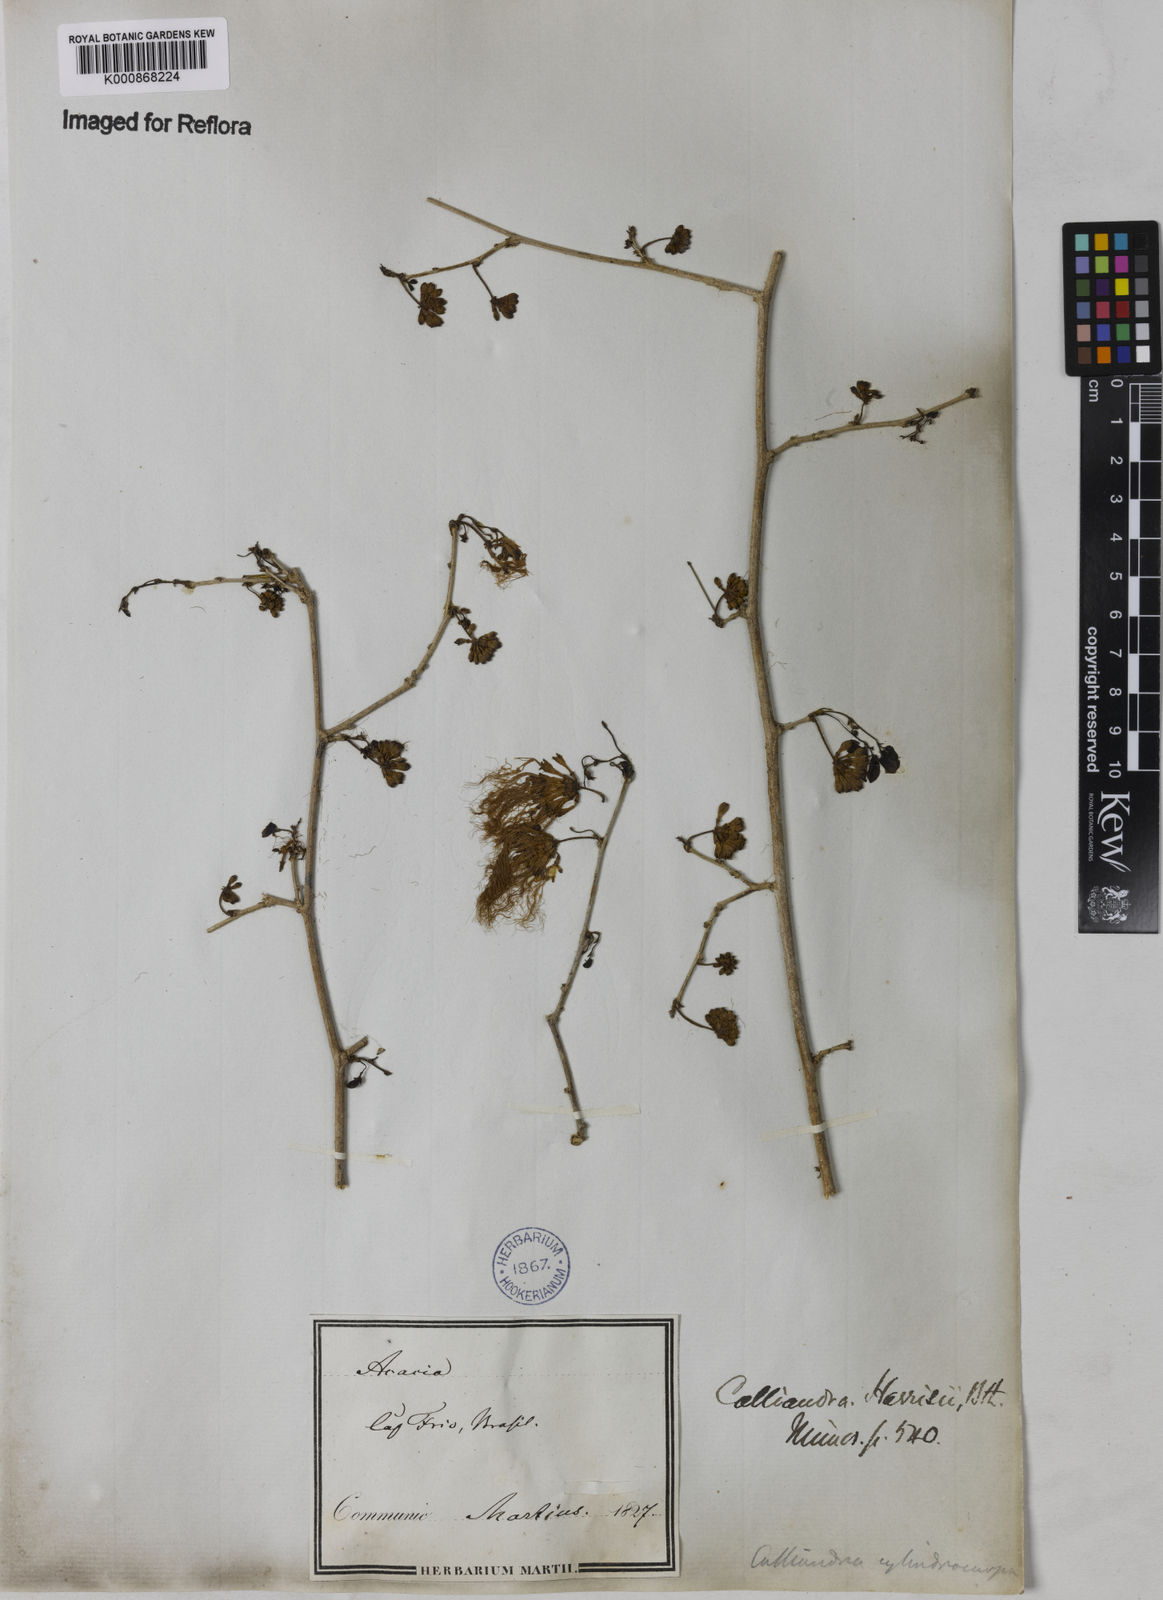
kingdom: Plantae
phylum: Tracheophyta
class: Magnoliopsida
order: Fabales
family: Fabaceae
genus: Calliandra
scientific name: Calliandra harrisii
